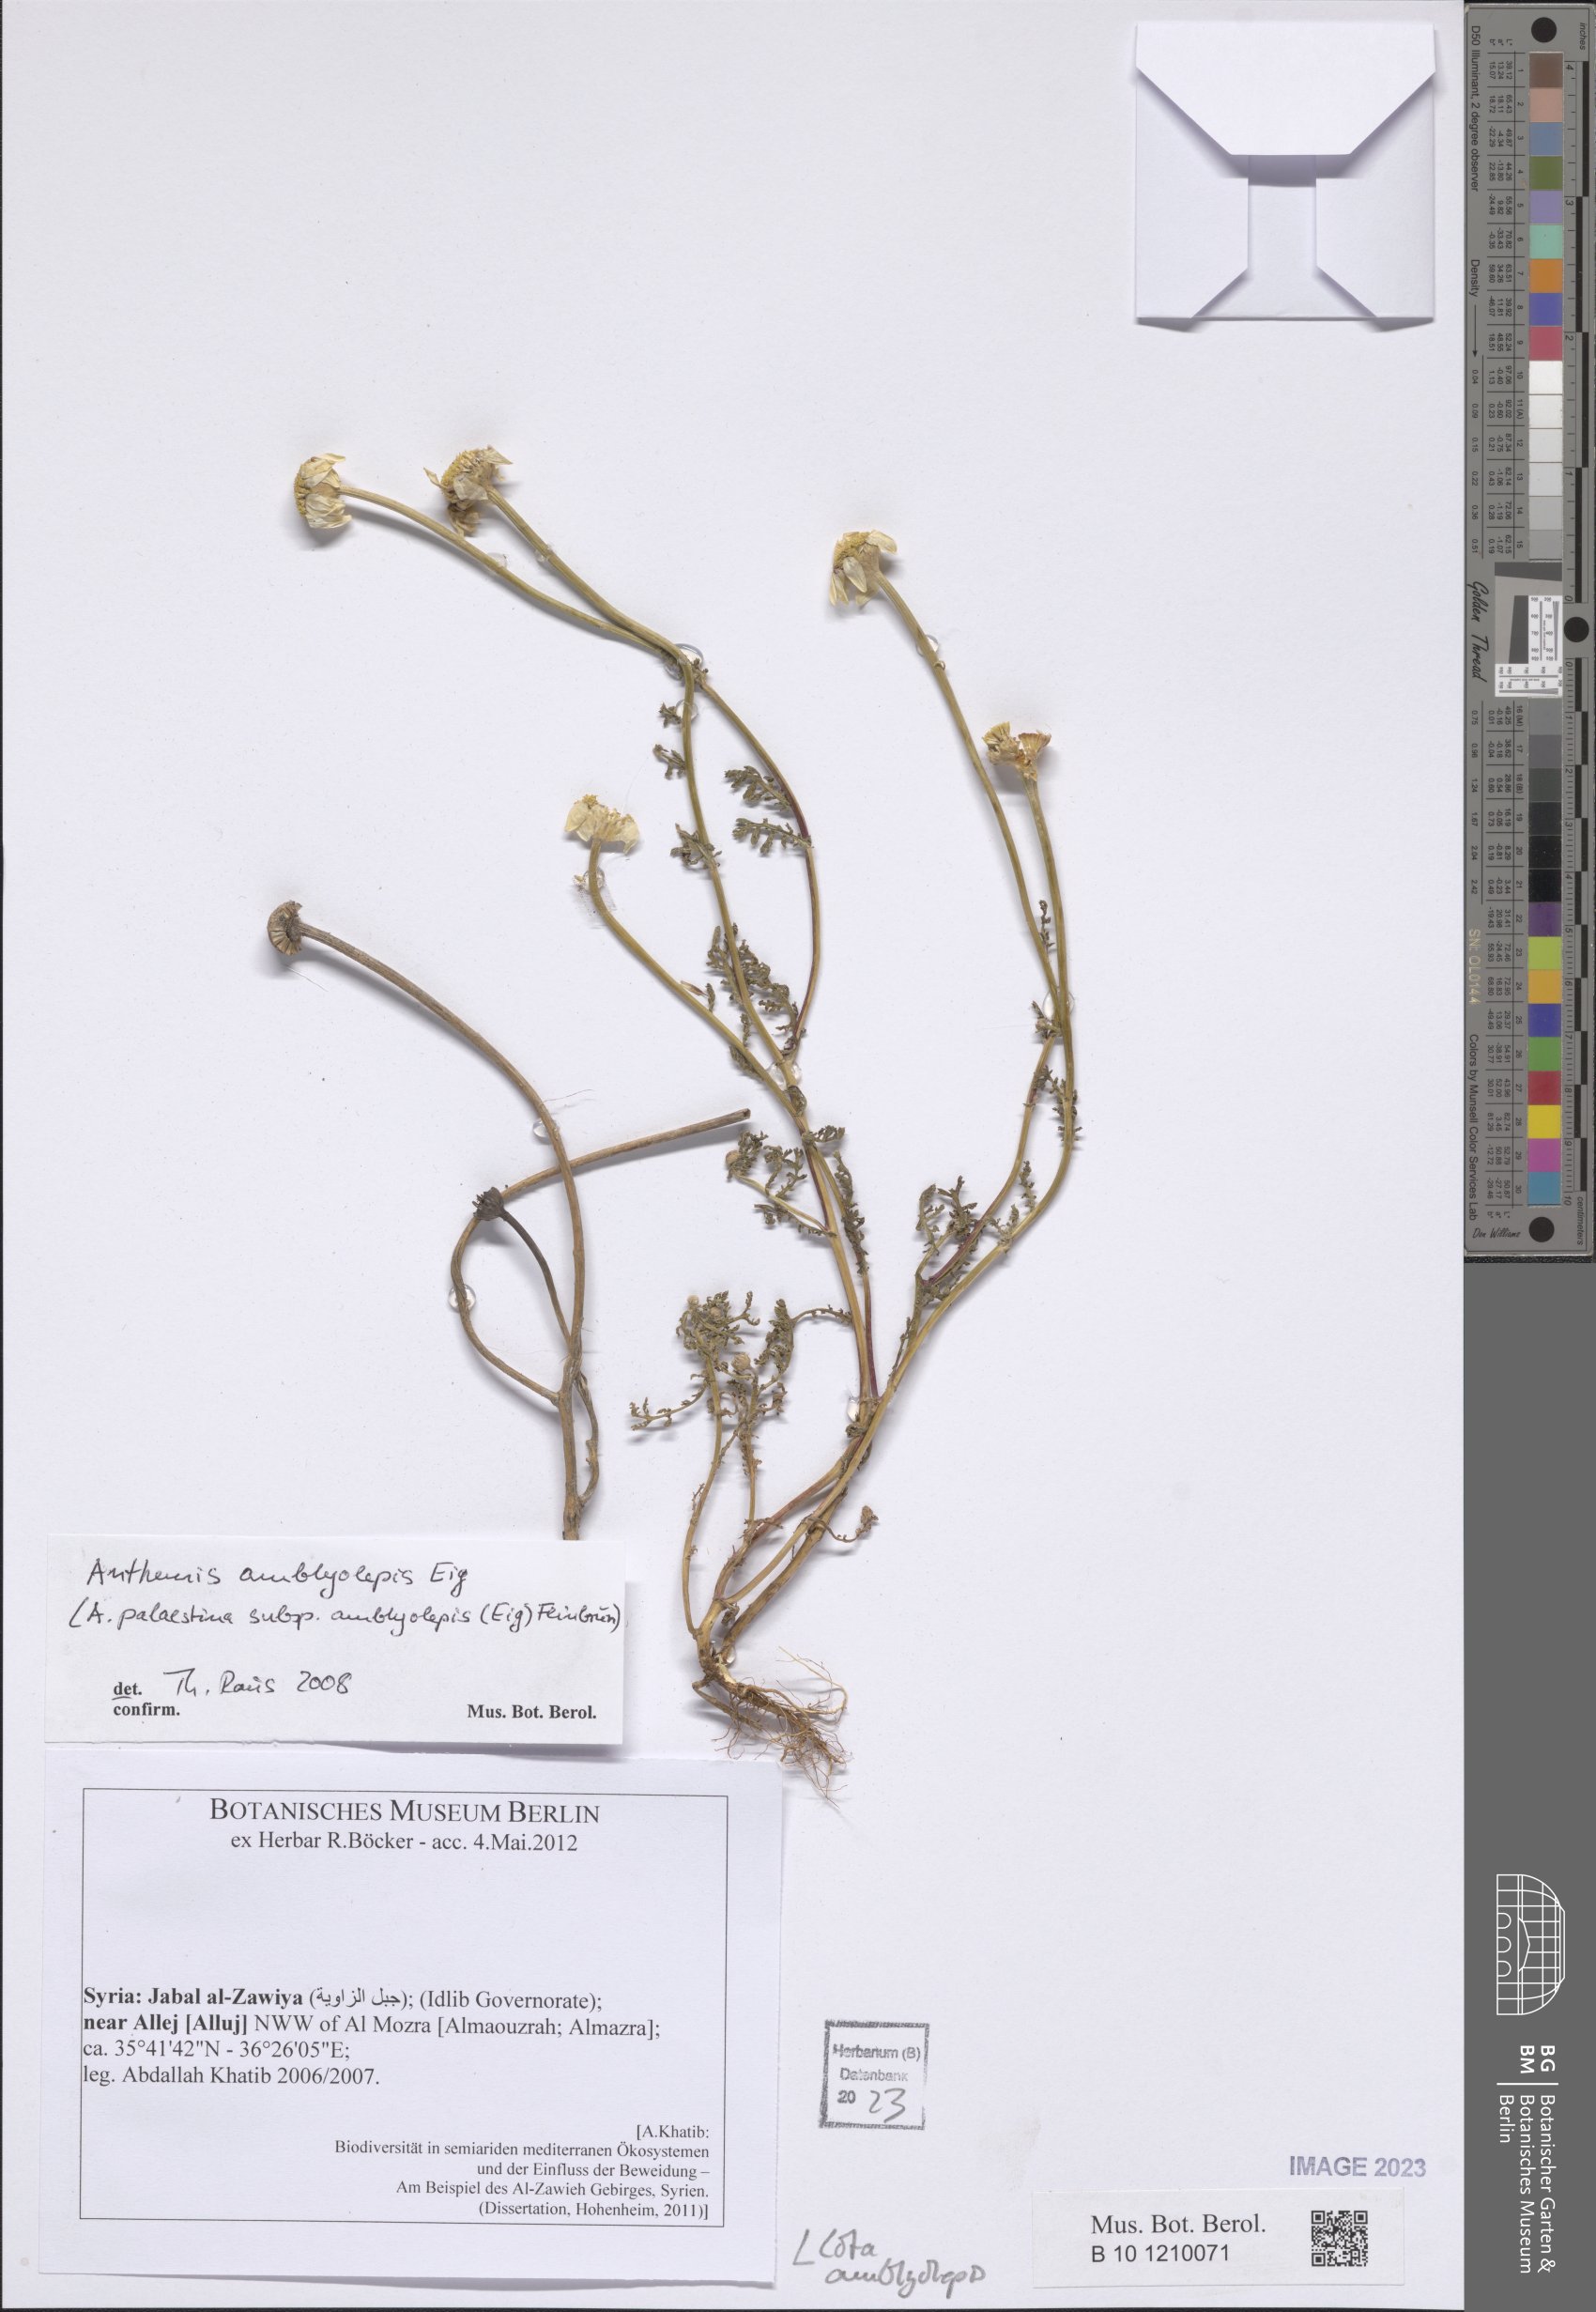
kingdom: Plantae
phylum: Tracheophyta
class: Magnoliopsida
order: Asterales
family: Asteraceae
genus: Cota
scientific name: Cota amblyolepis
